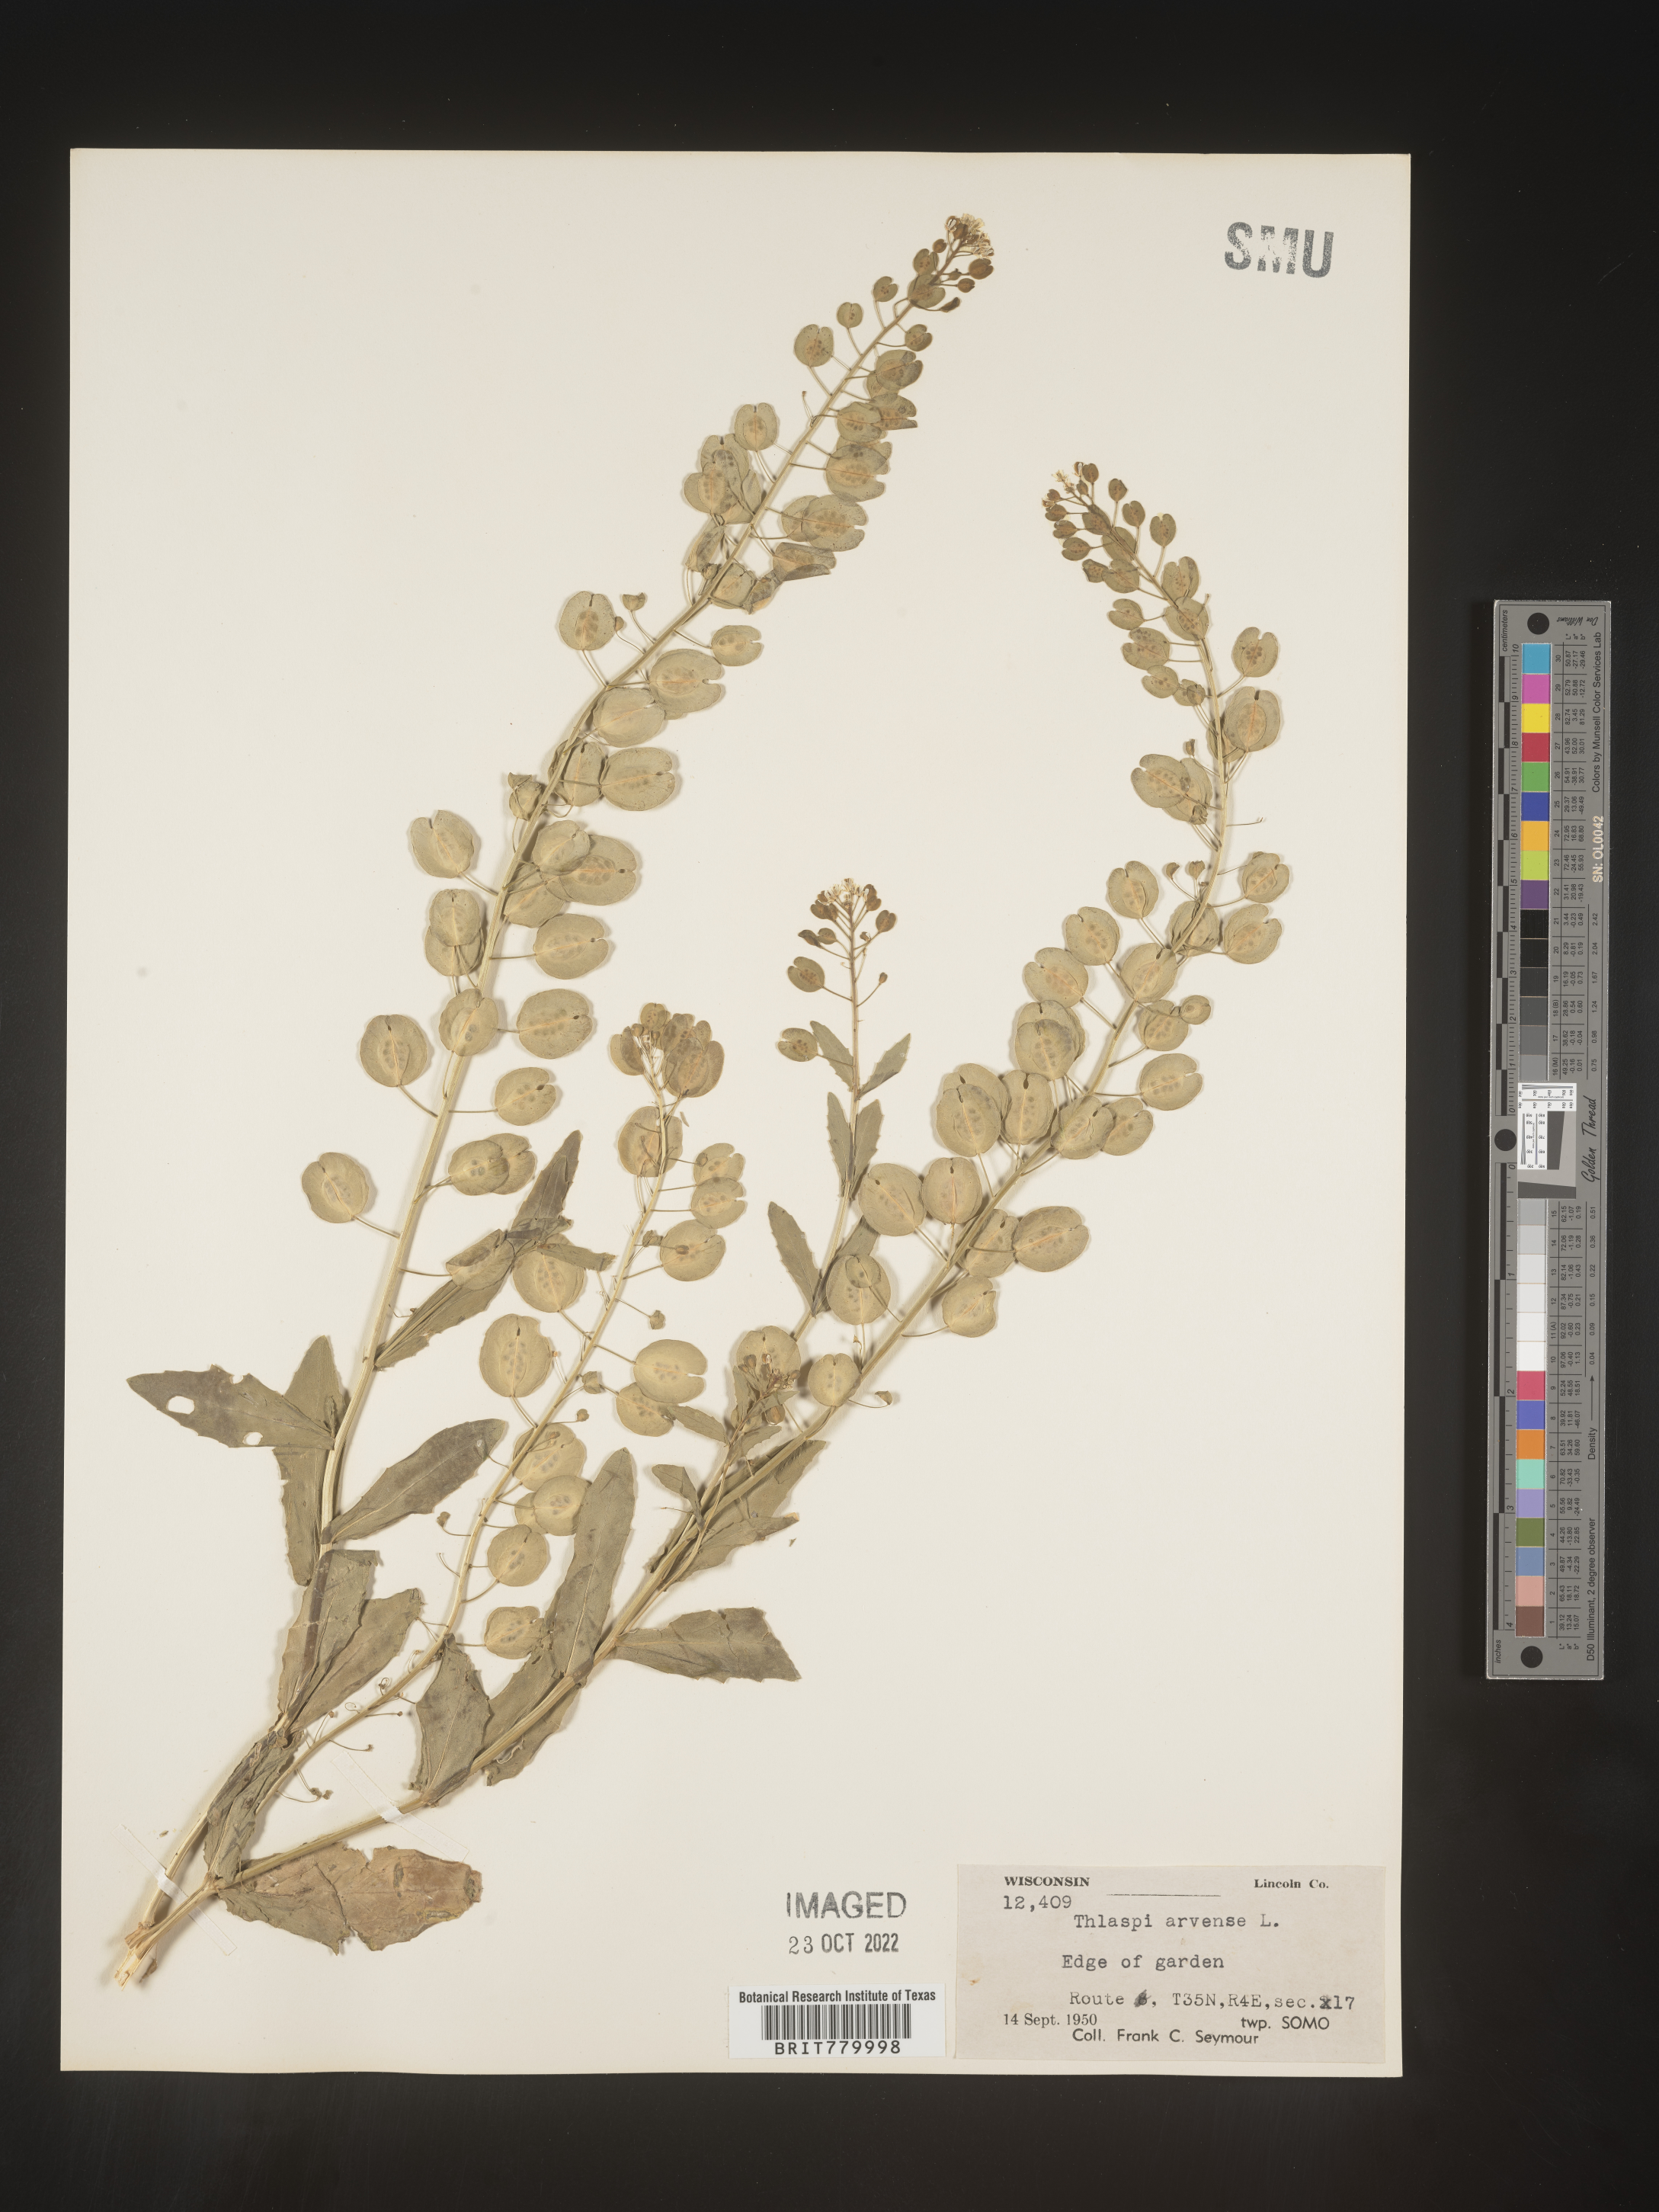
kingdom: Plantae
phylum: Tracheophyta
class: Magnoliopsida
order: Brassicales
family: Brassicaceae
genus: Thlaspi
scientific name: Thlaspi arvense
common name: Field pennycress
